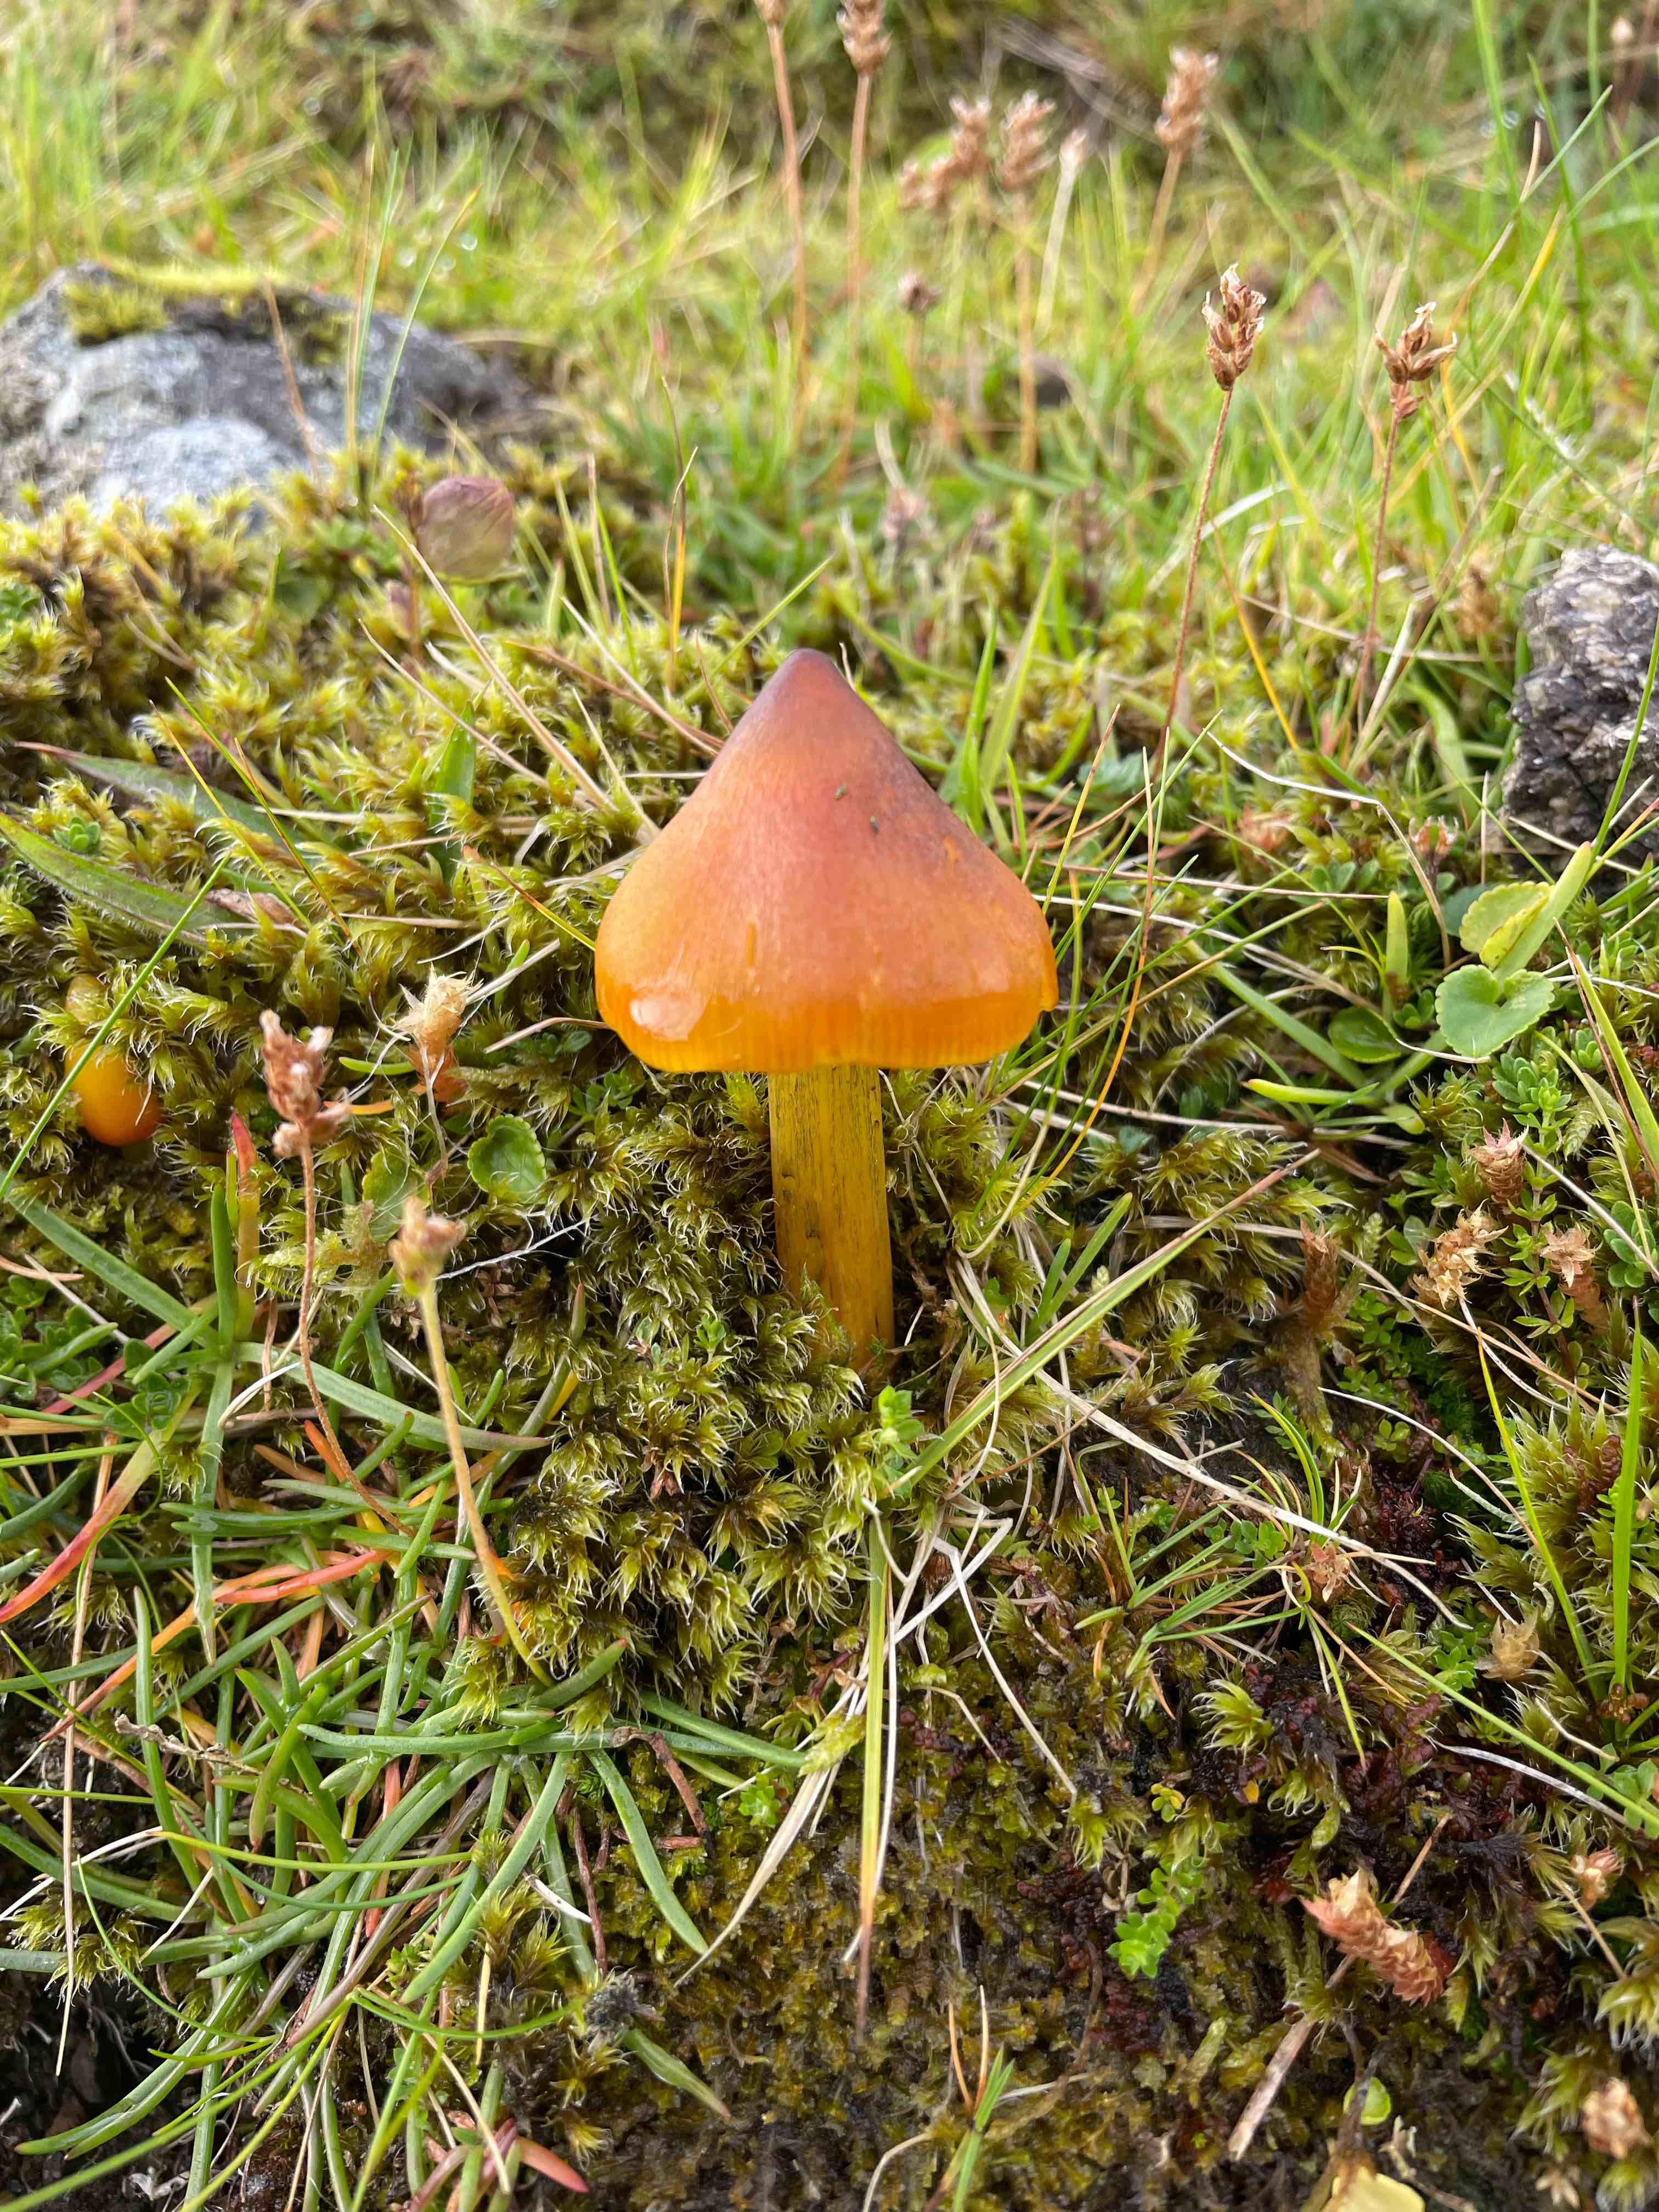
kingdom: Fungi
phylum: Basidiomycota
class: Agaricomycetes
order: Agaricales
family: Hygrophoraceae
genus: Hygrocybe
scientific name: Hygrocybe conica
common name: kegle-vokshat
